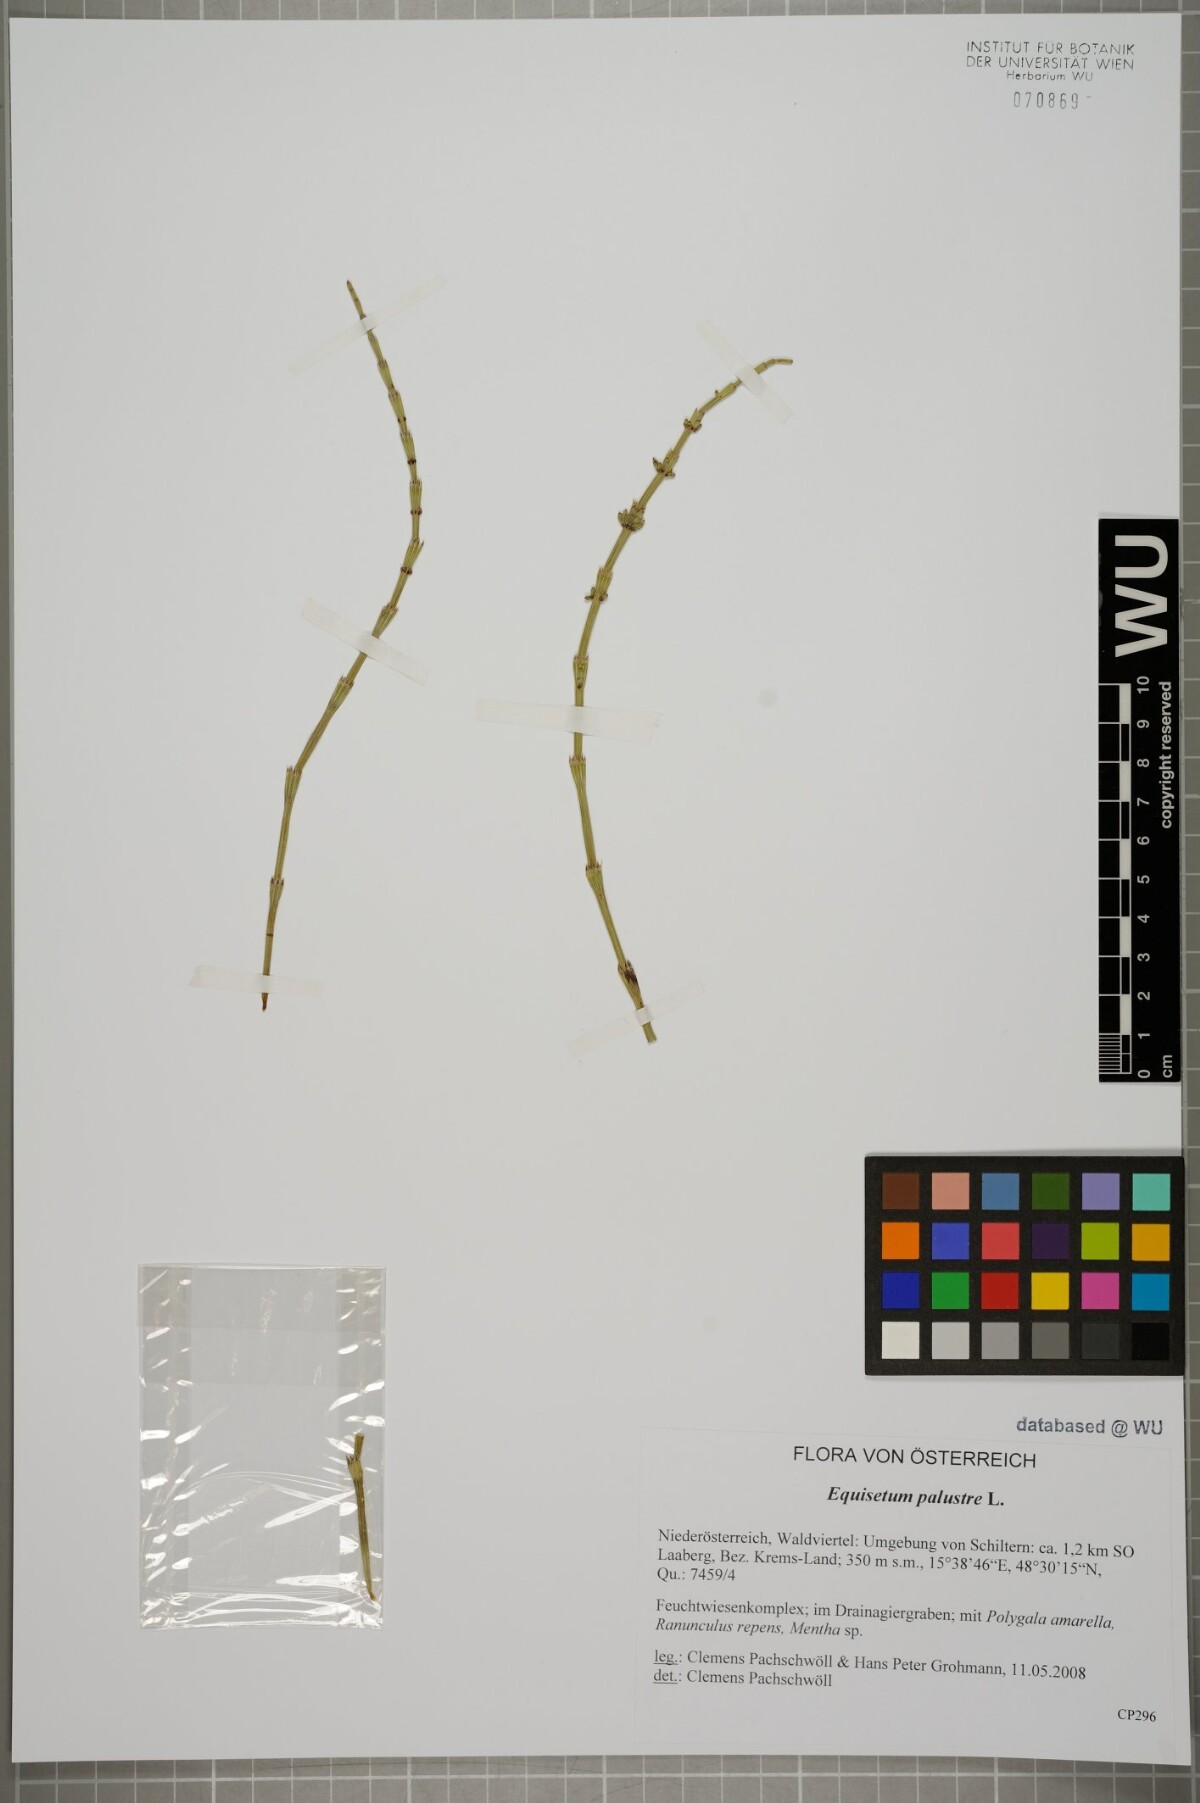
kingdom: Plantae
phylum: Tracheophyta
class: Polypodiopsida
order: Equisetales
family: Equisetaceae
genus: Equisetum
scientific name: Equisetum palustre
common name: Marsh horsetail
